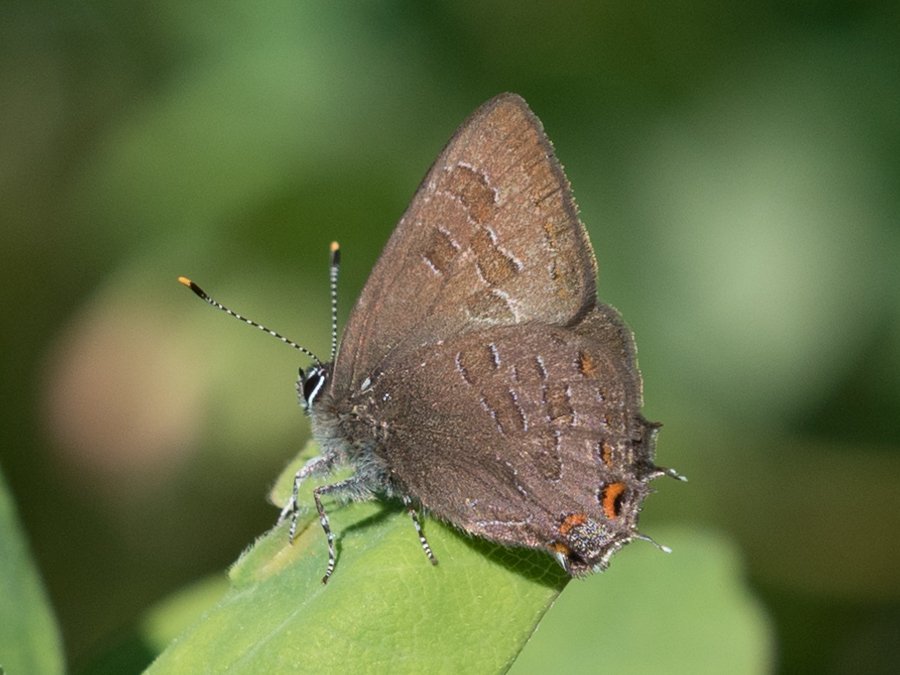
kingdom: Animalia
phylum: Arthropoda
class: Insecta
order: Lepidoptera
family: Lycaenidae
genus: Satyrium
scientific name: Satyrium liparops
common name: Striped Hairstreak
